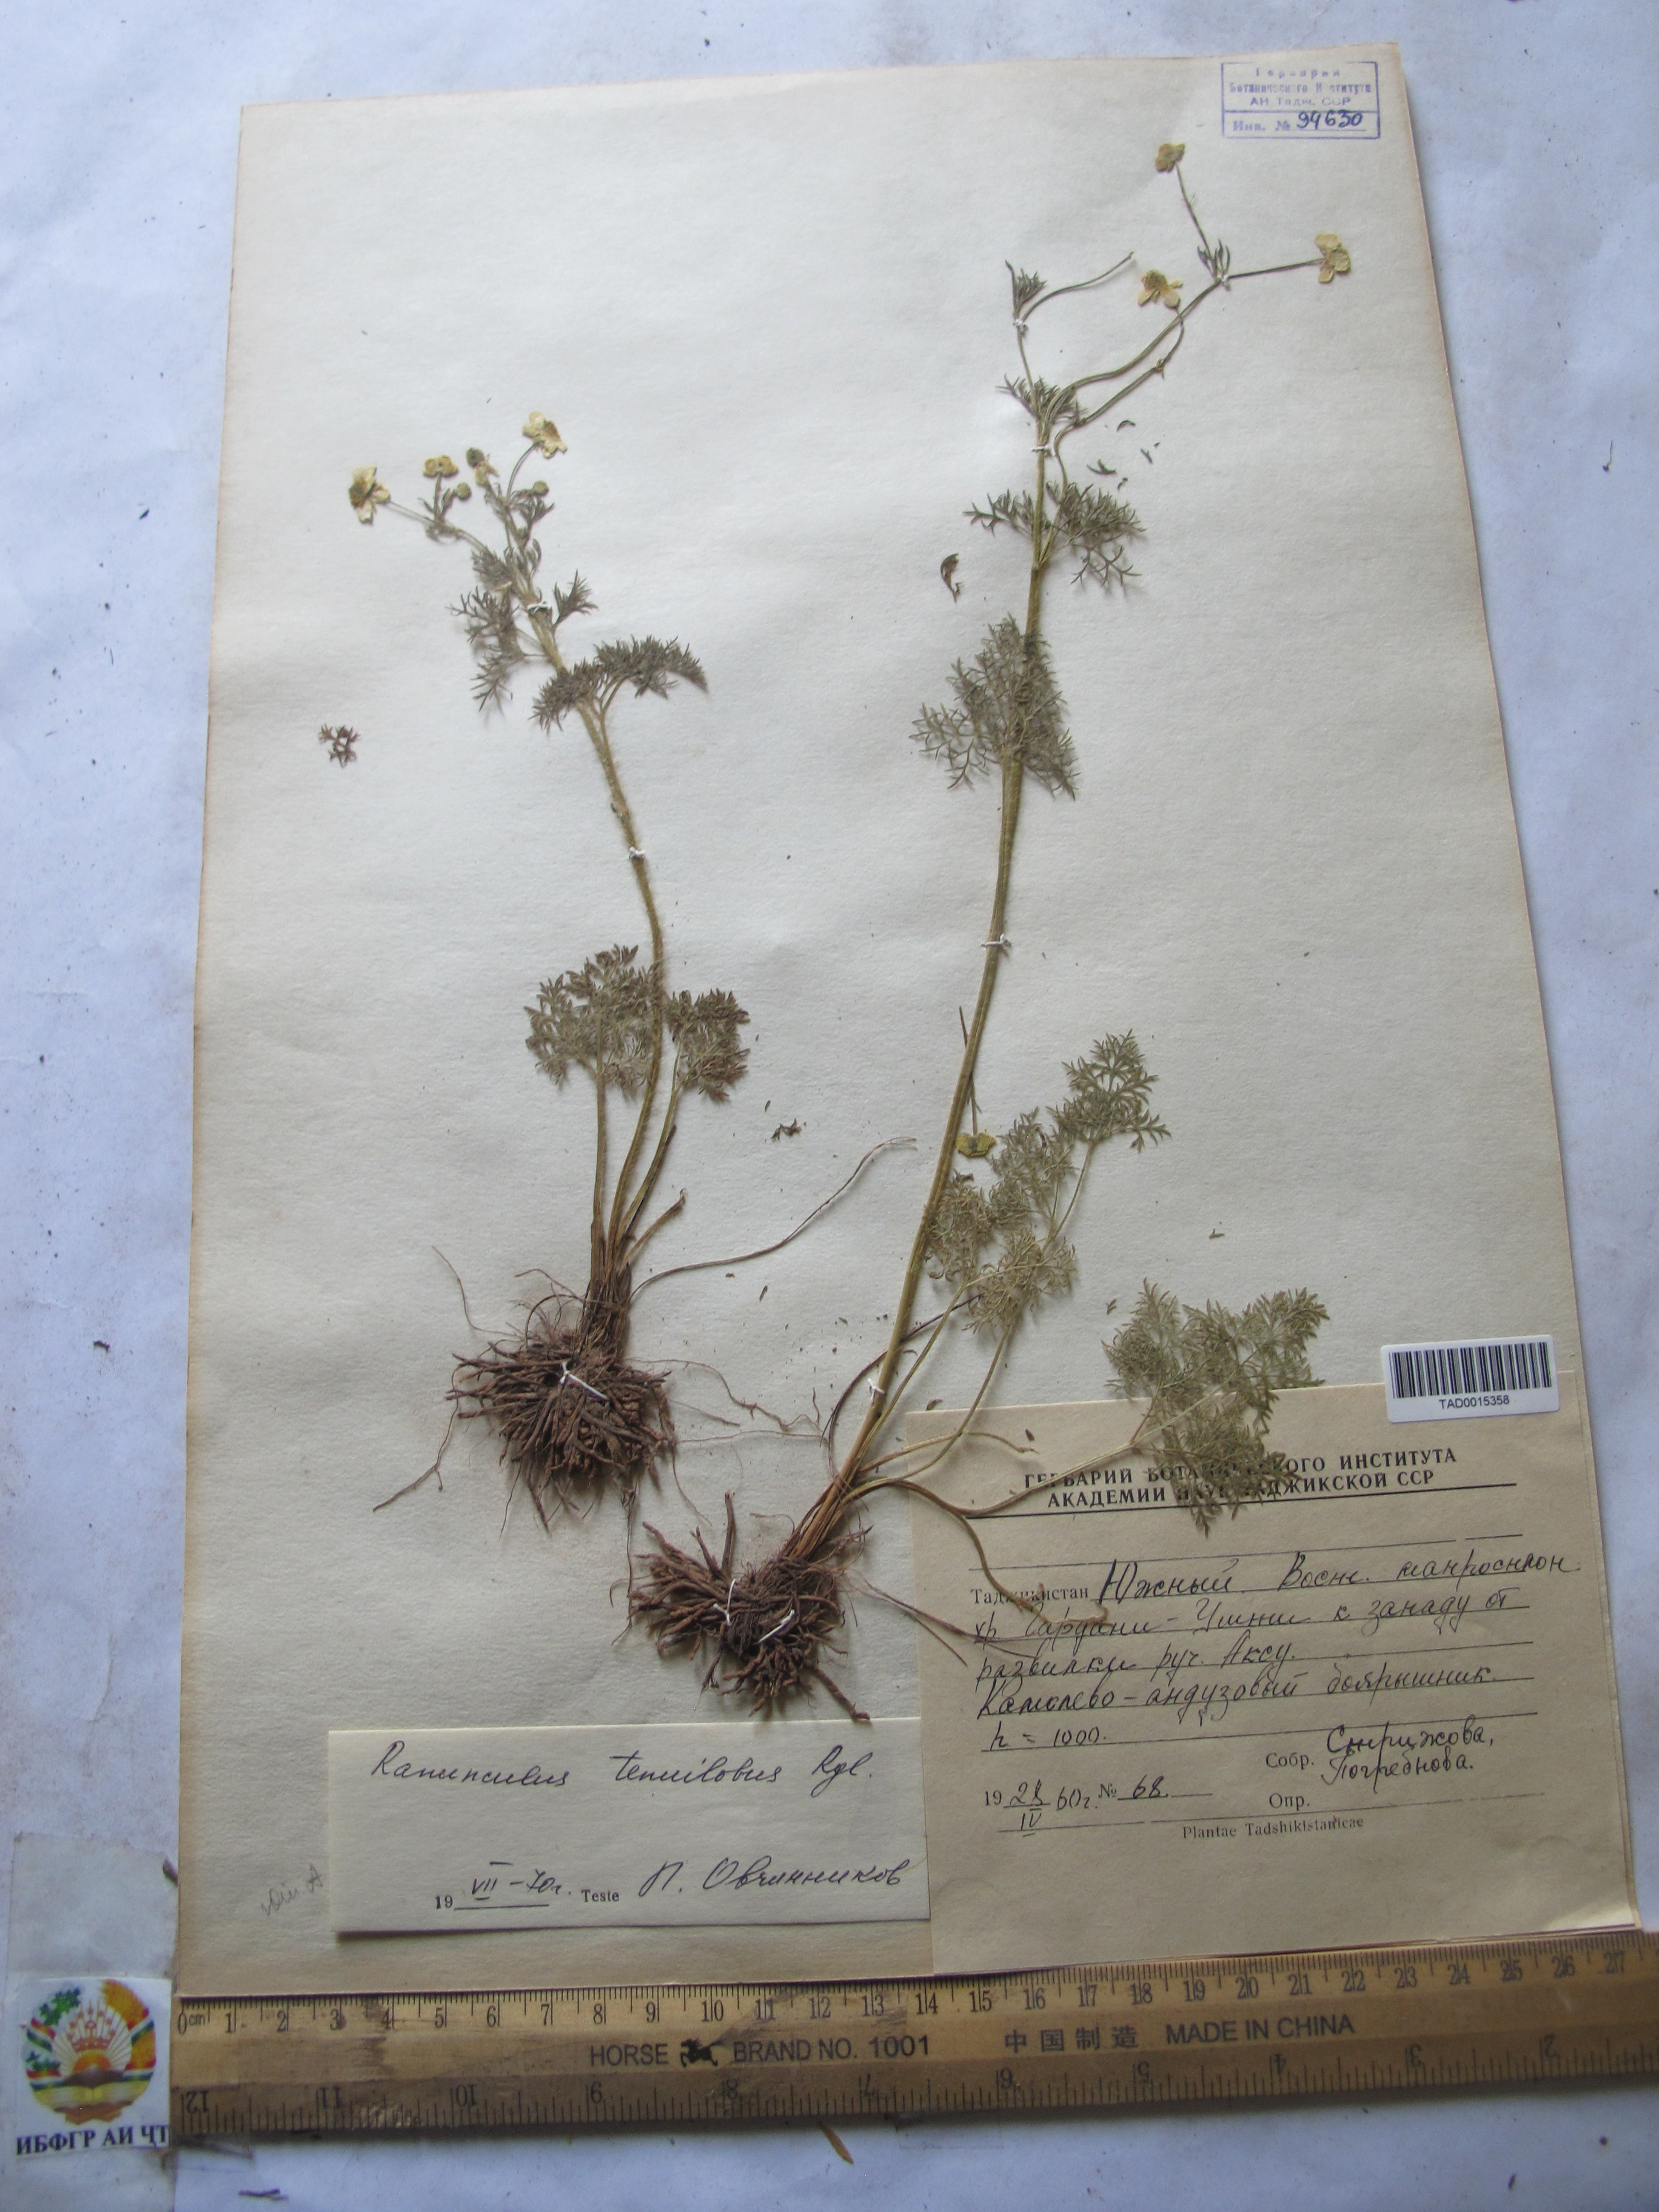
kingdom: Plantae
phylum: Tracheophyta
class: Magnoliopsida
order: Ranunculales
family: Ranunculaceae
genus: Ranunculus
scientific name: Ranunculus tenuilobus
